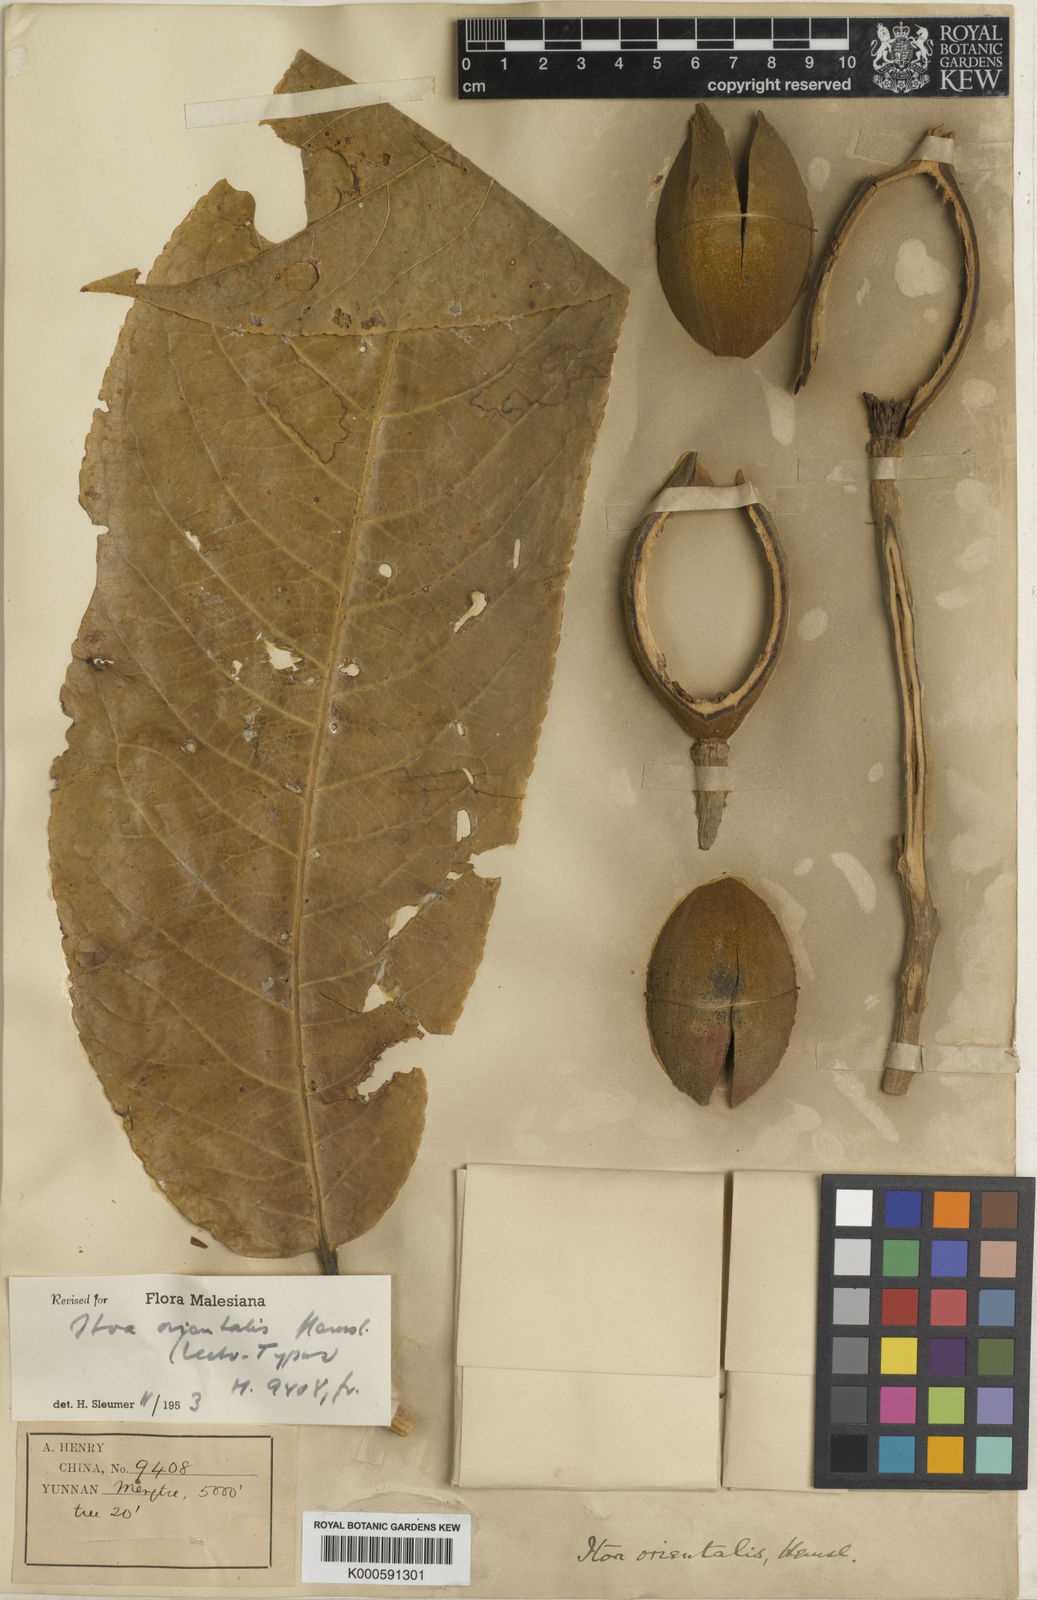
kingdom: Plantae
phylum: Tracheophyta
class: Magnoliopsida
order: Malpighiales
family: Salicaceae
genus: Itoa
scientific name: Itoa orientalis
